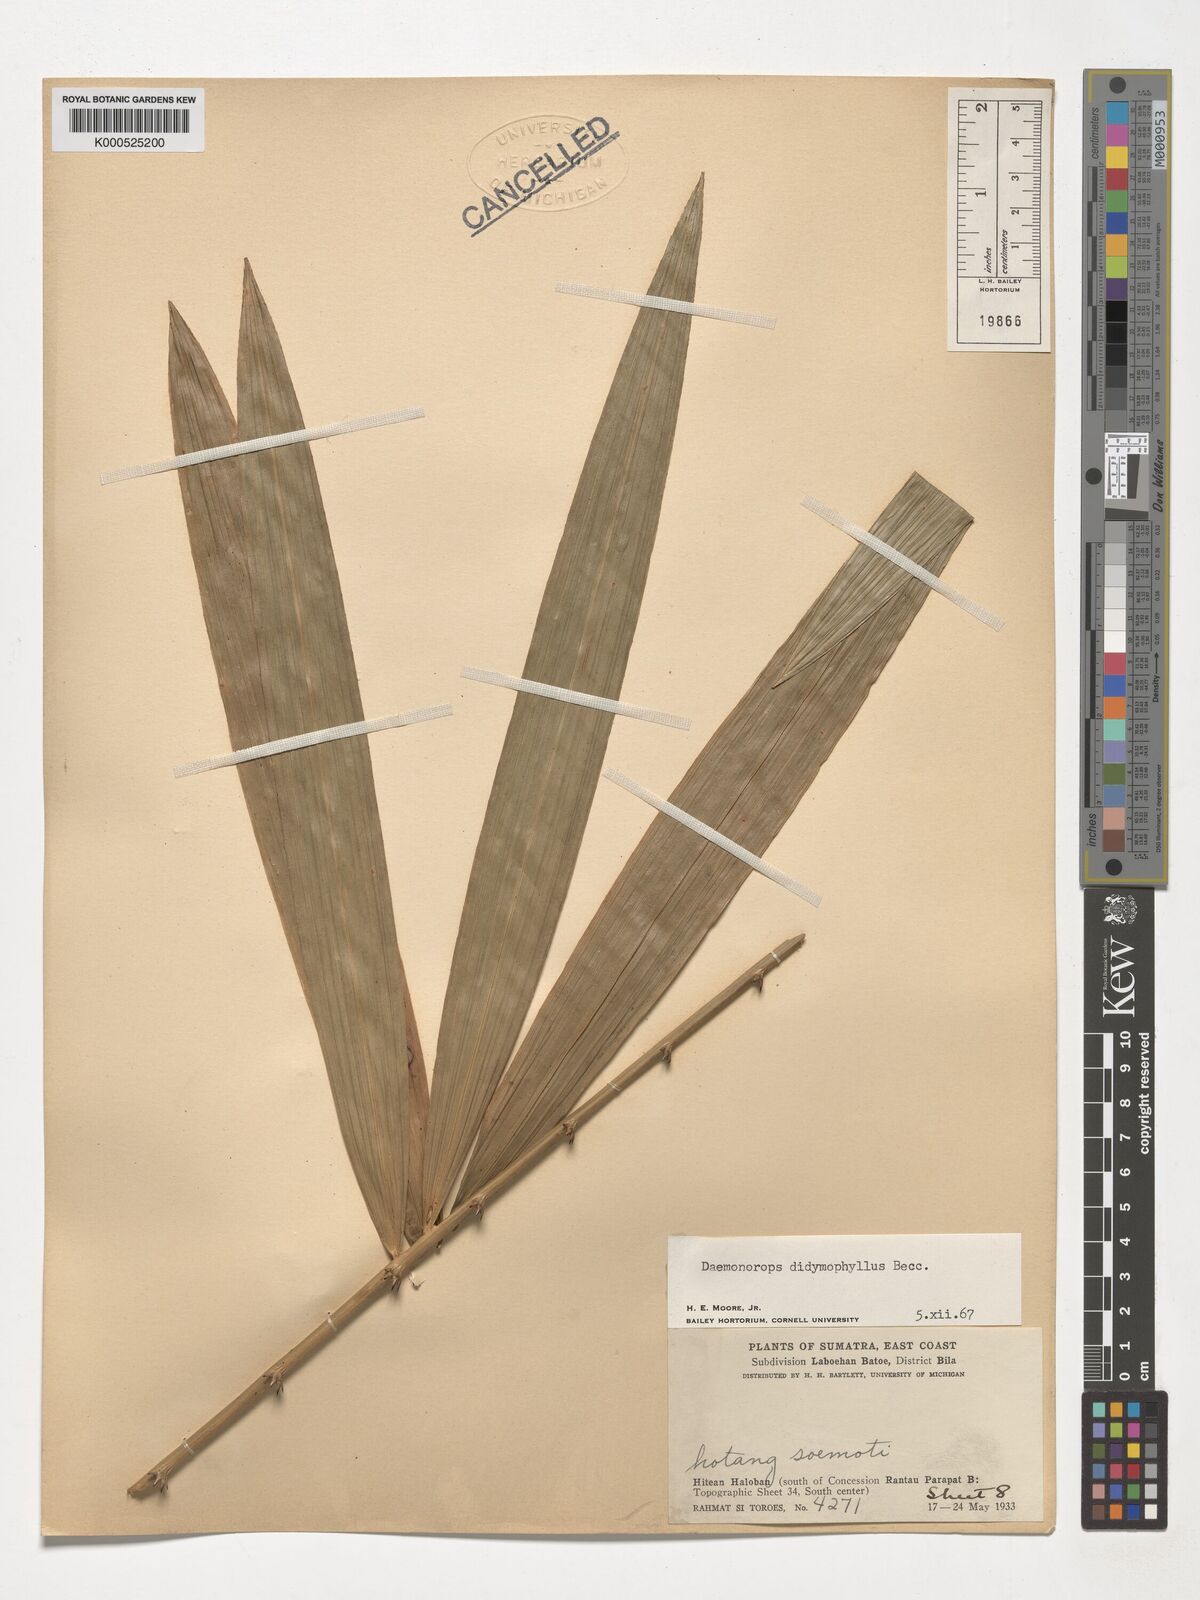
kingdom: Plantae
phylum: Tracheophyta
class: Liliopsida
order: Arecales
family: Arecaceae
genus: Calamus
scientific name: Calamus gracilipes
